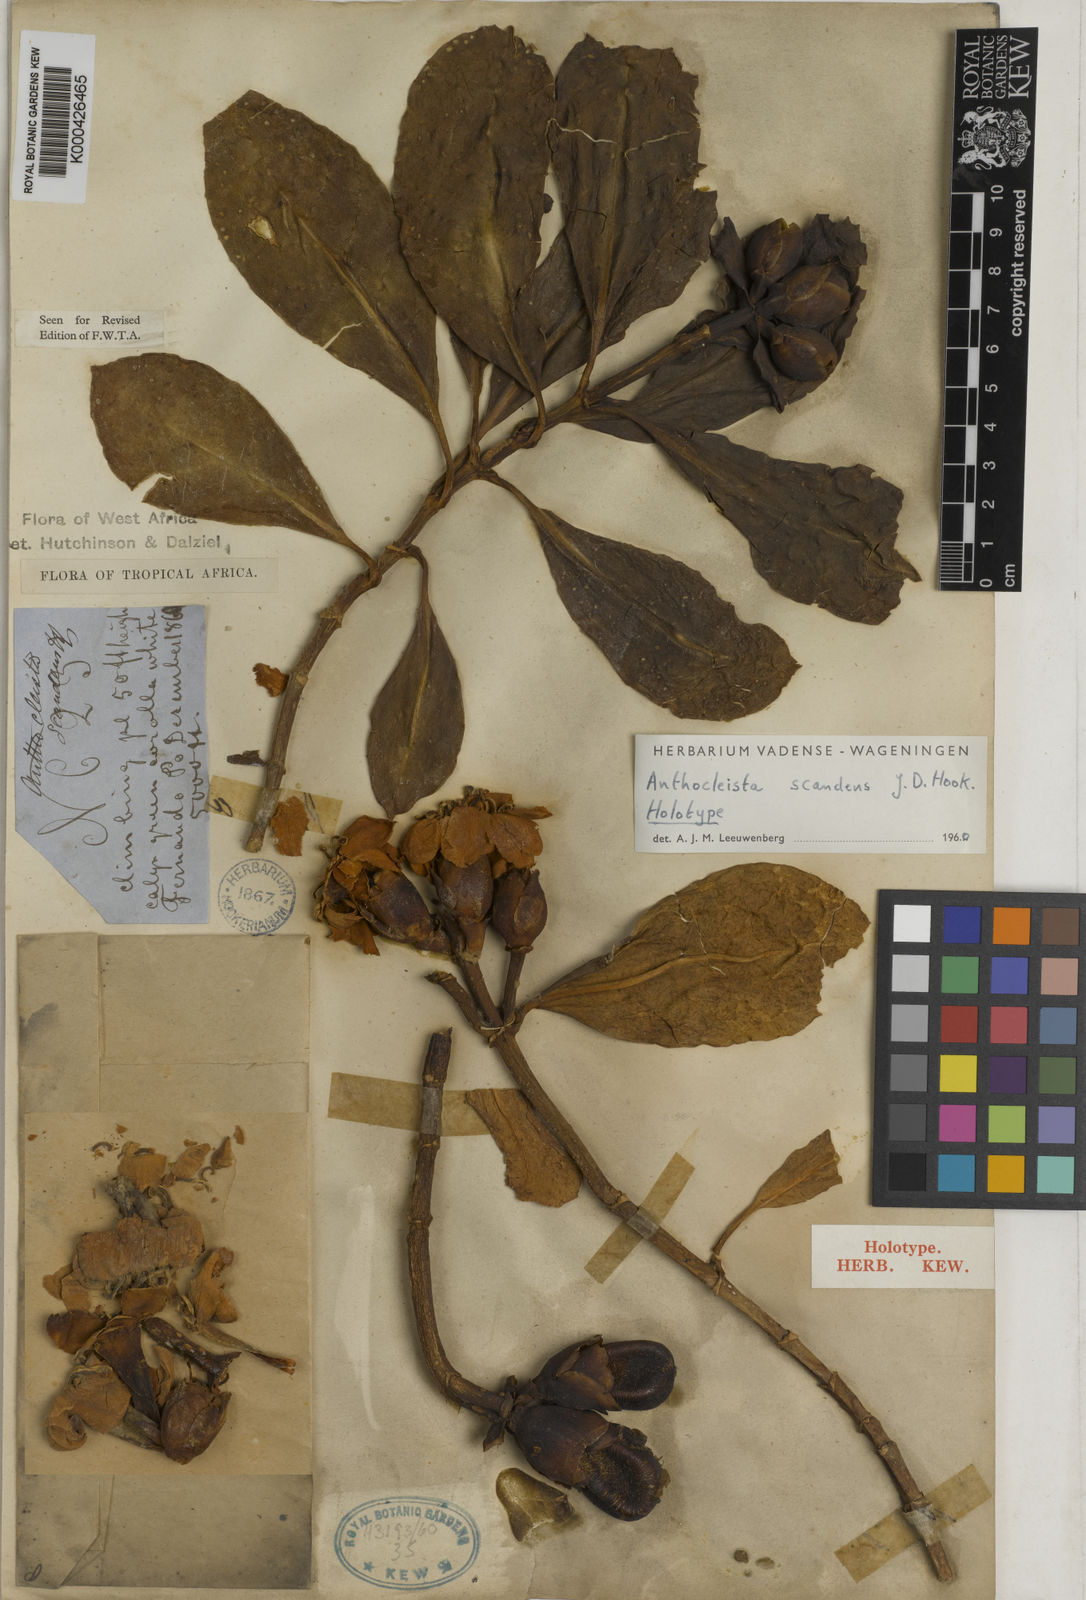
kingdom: Plantae
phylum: Tracheophyta
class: Magnoliopsida
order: Gentianales
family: Gentianaceae
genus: Anthocleista
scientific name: Anthocleista scandens
